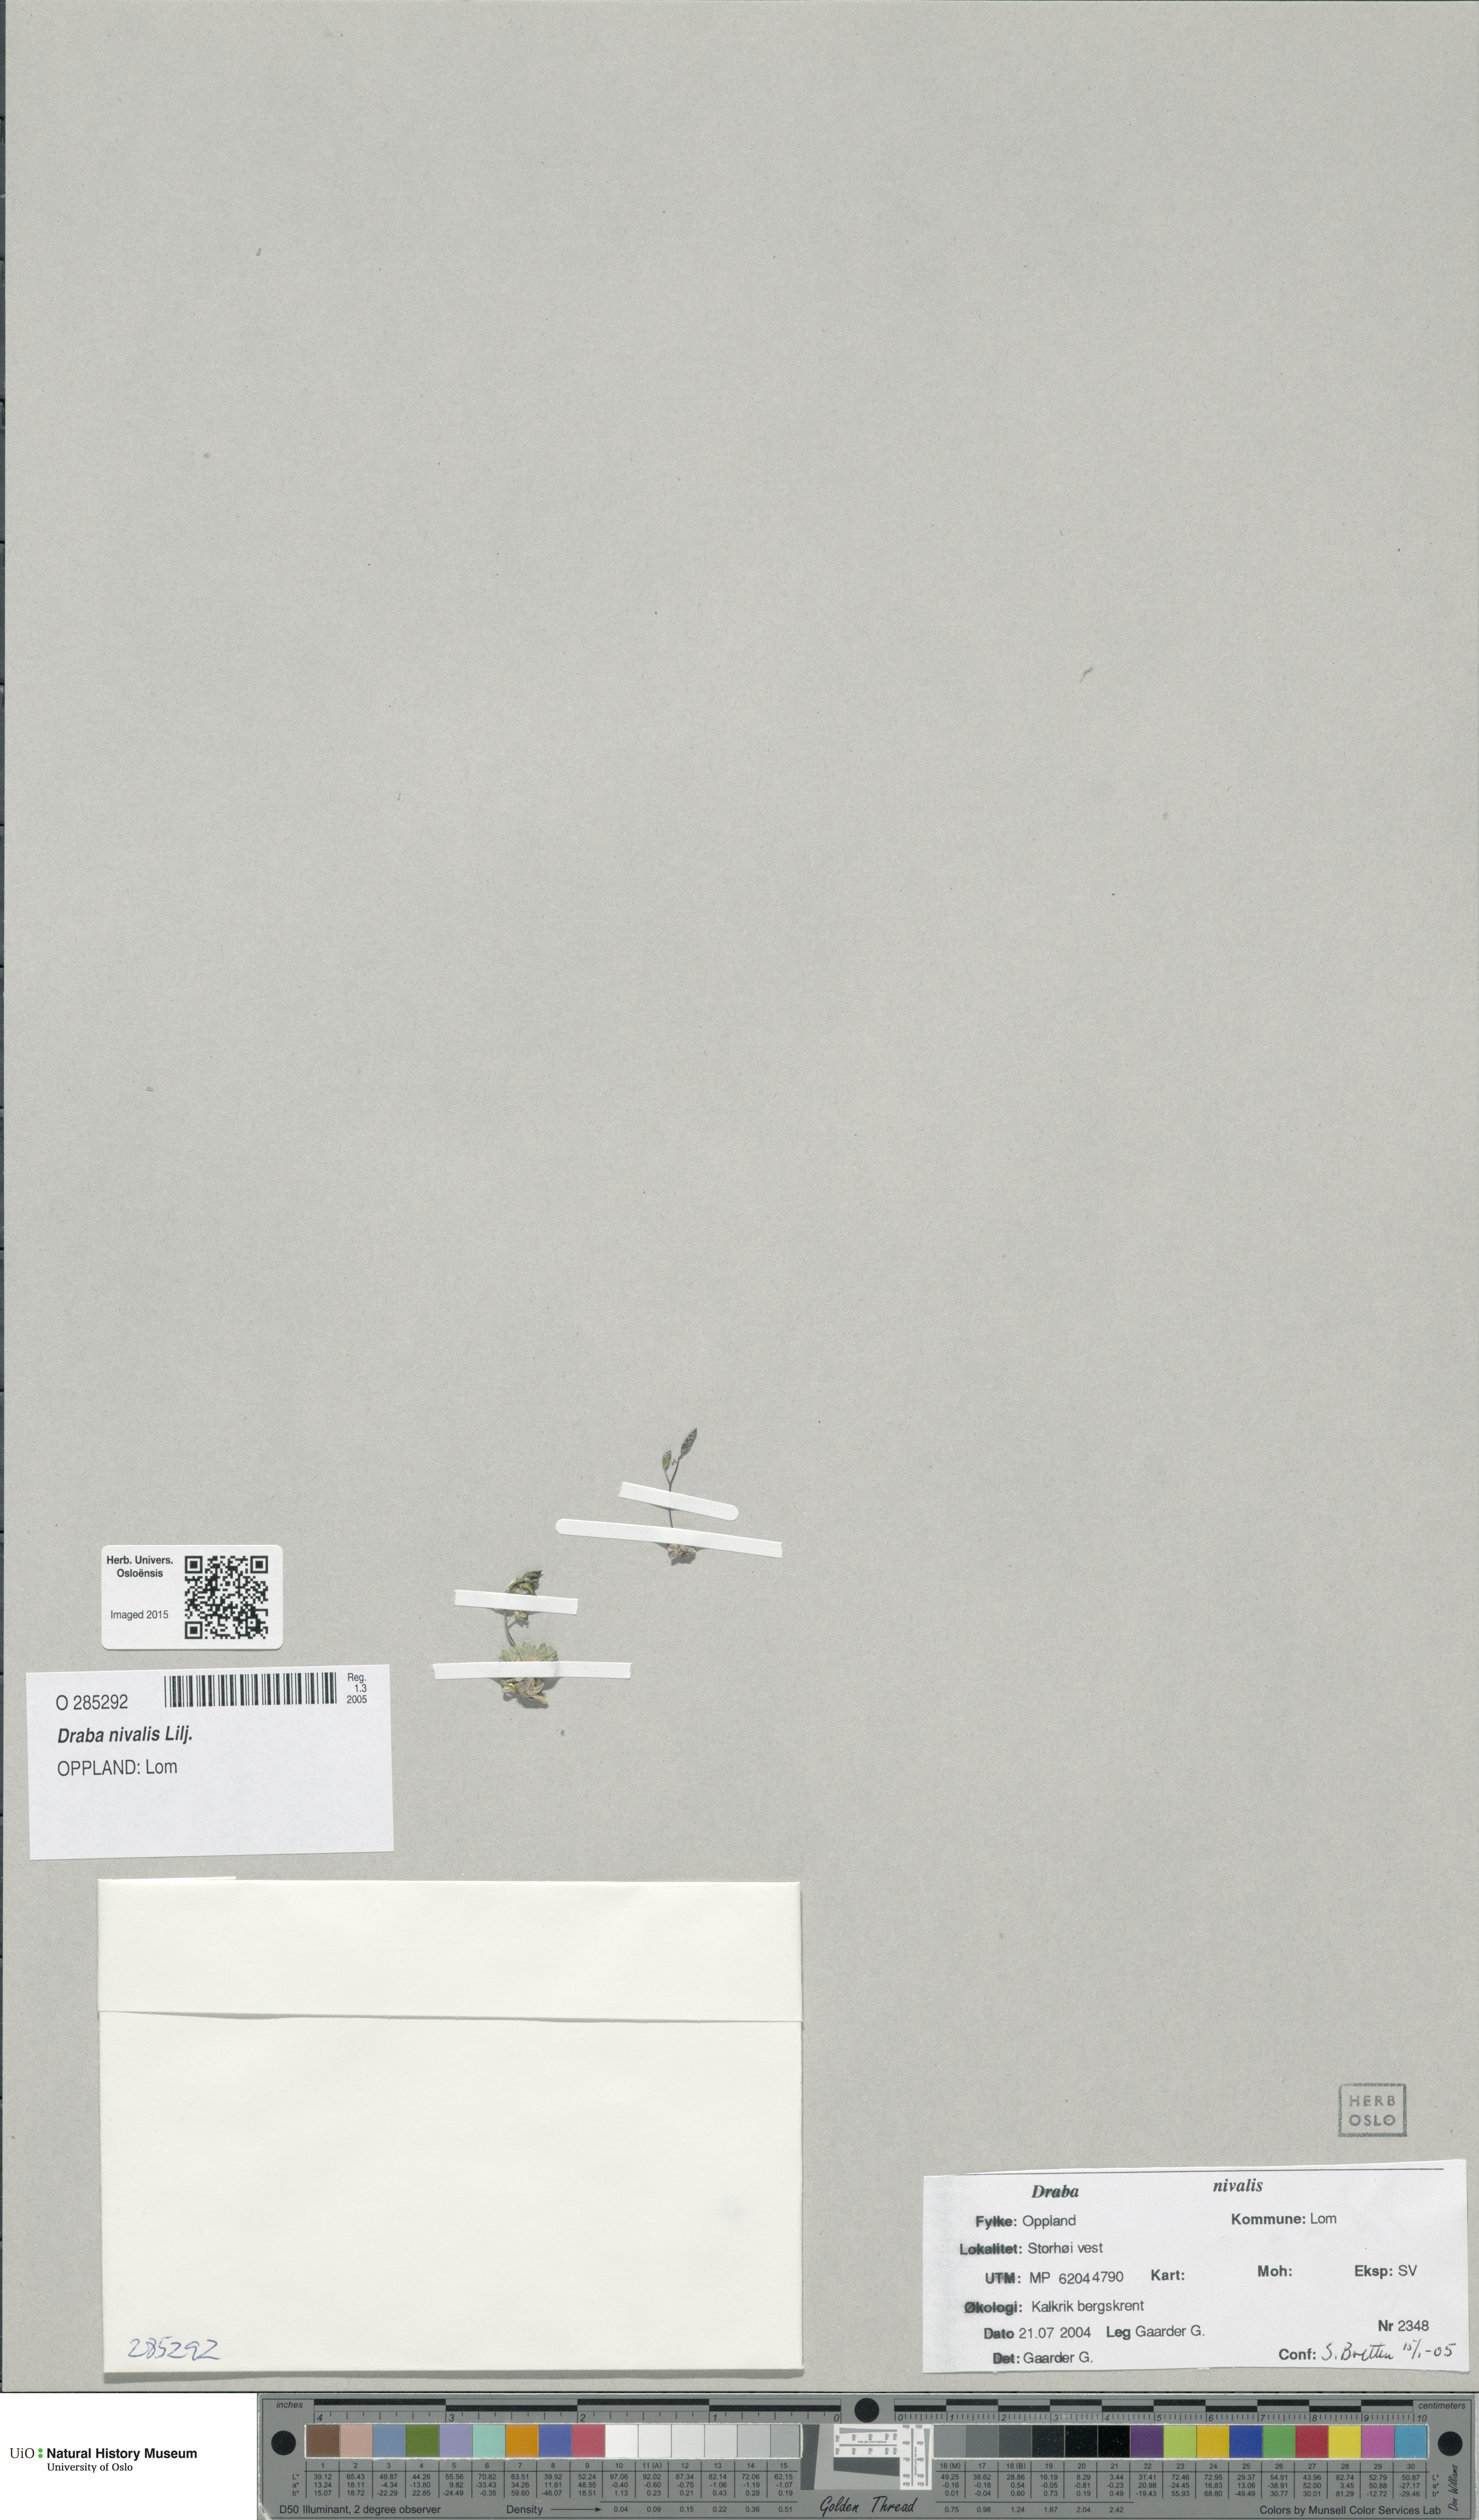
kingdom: Plantae
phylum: Tracheophyta
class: Magnoliopsida
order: Brassicales
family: Brassicaceae
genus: Draba
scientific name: Draba nivalis
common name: Snow draba
